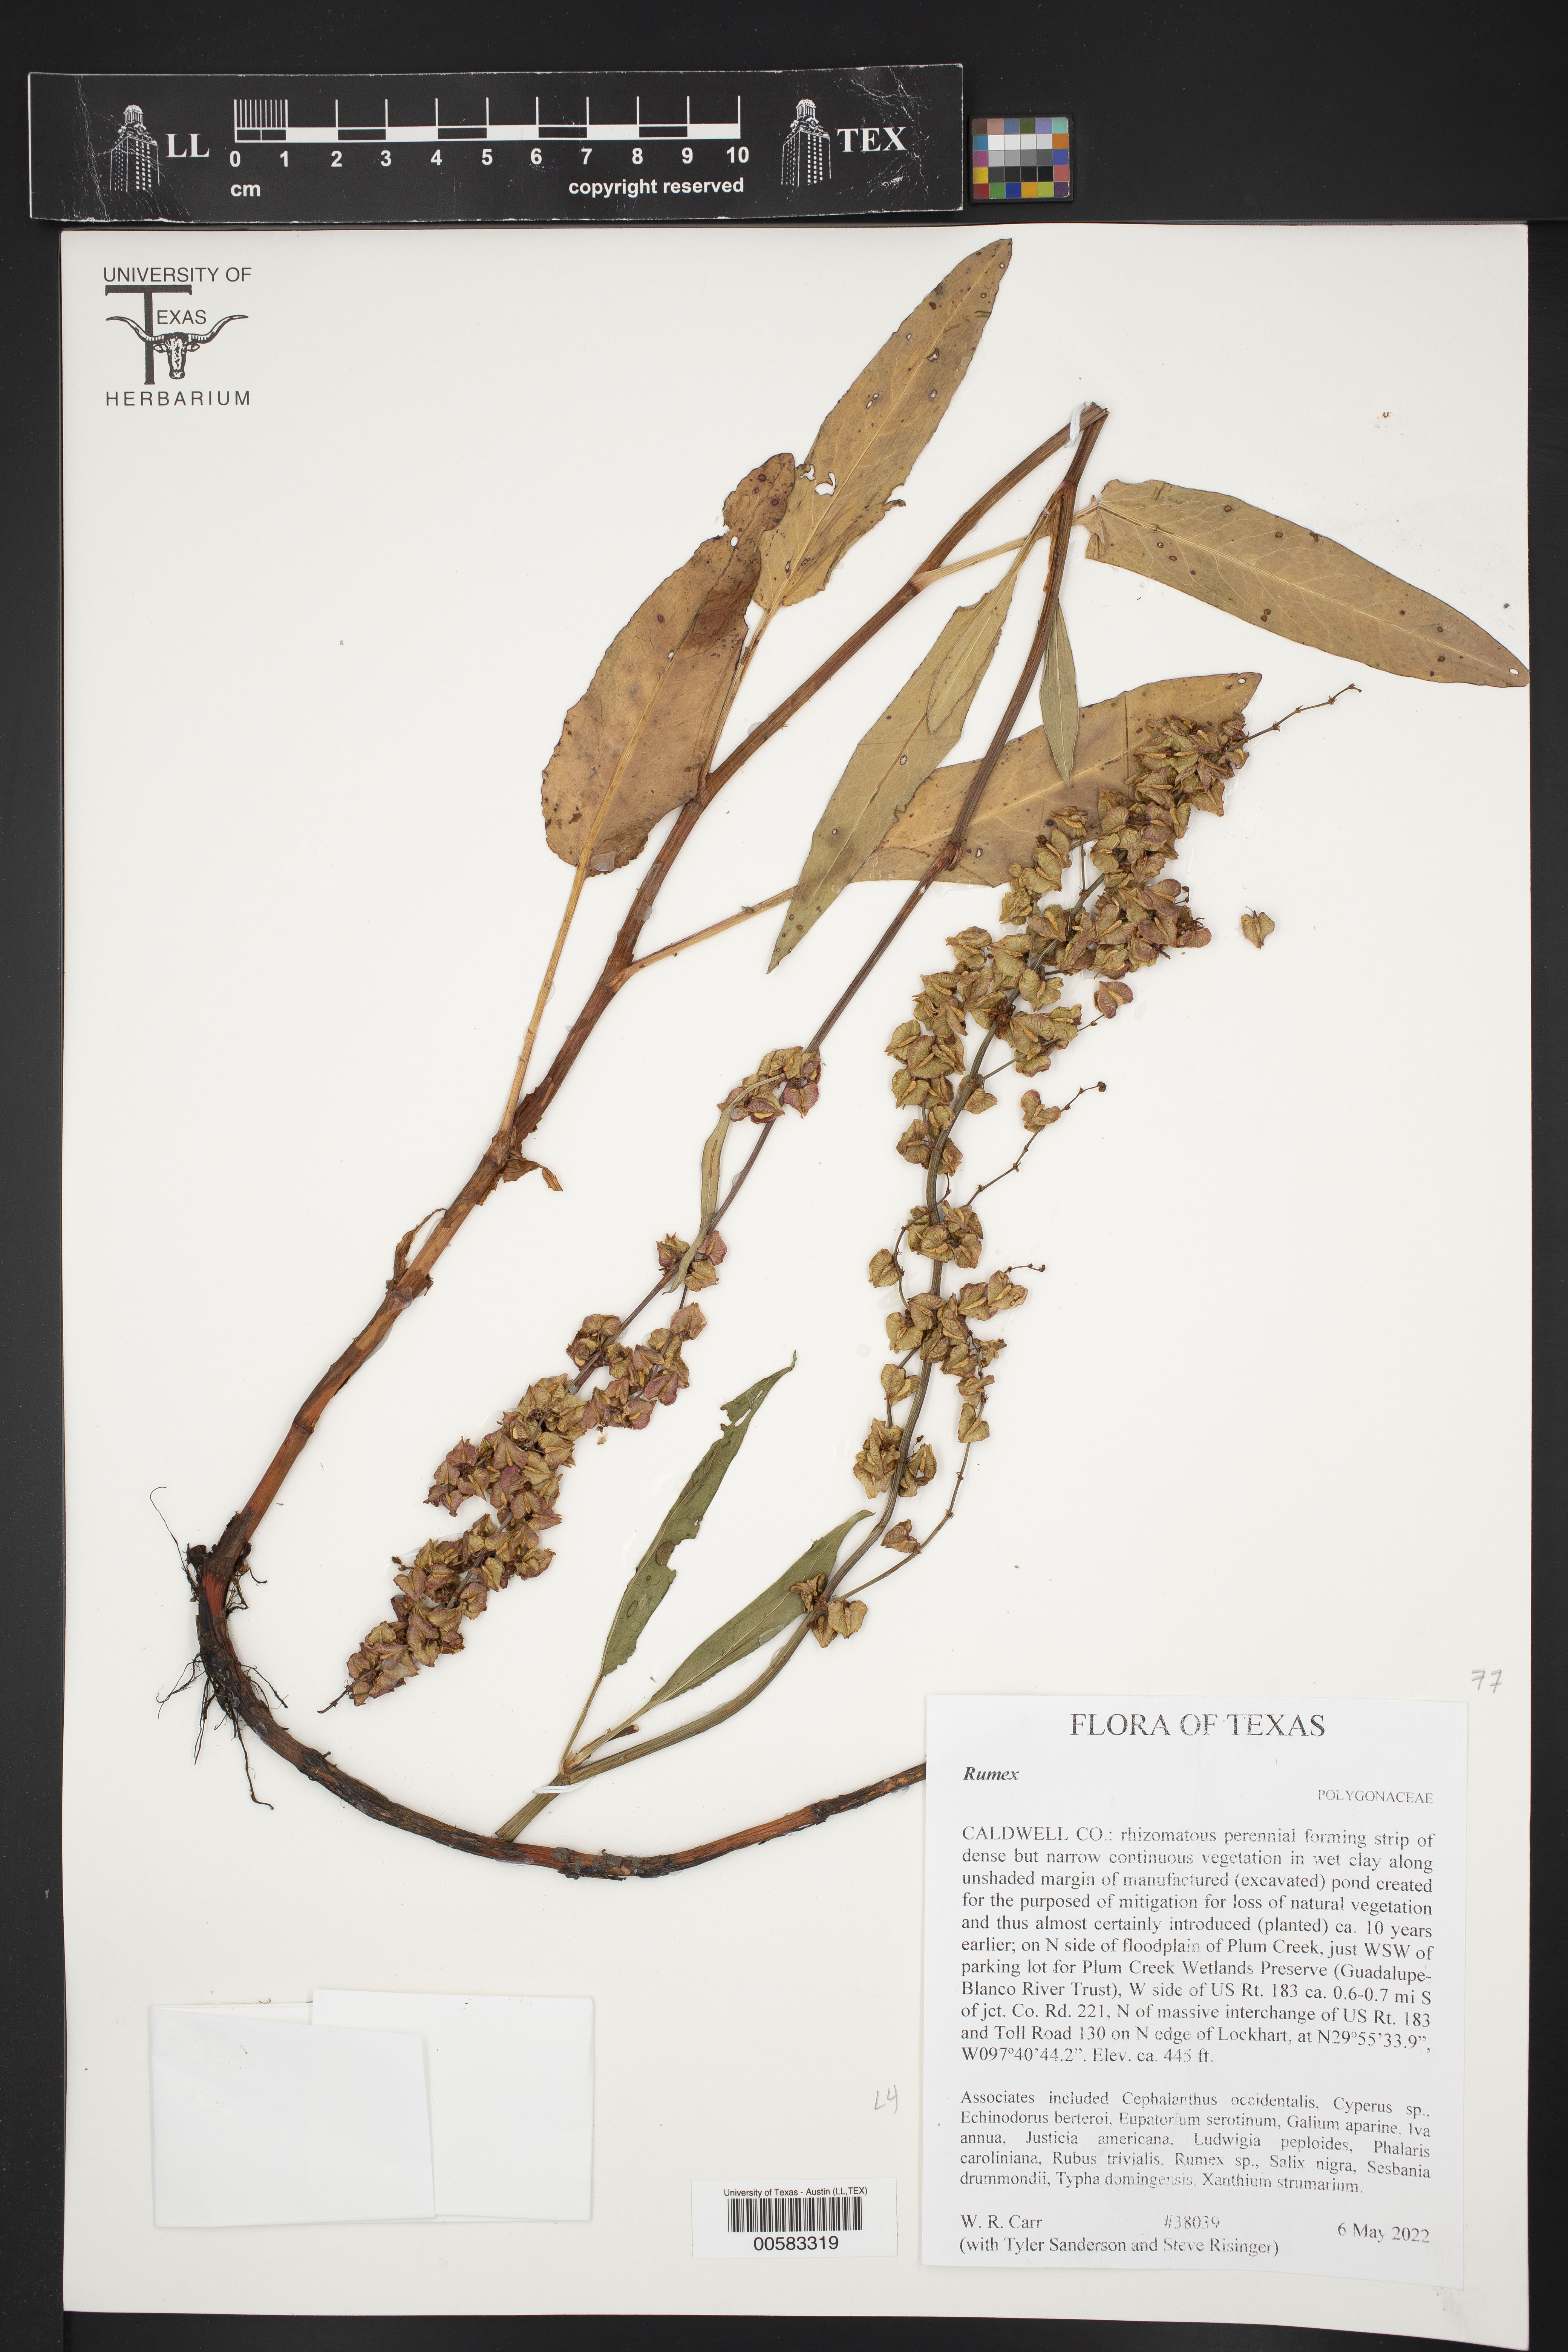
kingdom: Plantae
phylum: Tracheophyta
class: Magnoliopsida
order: Caryophyllales
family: Polygonaceae
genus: Rumex
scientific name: Rumex
